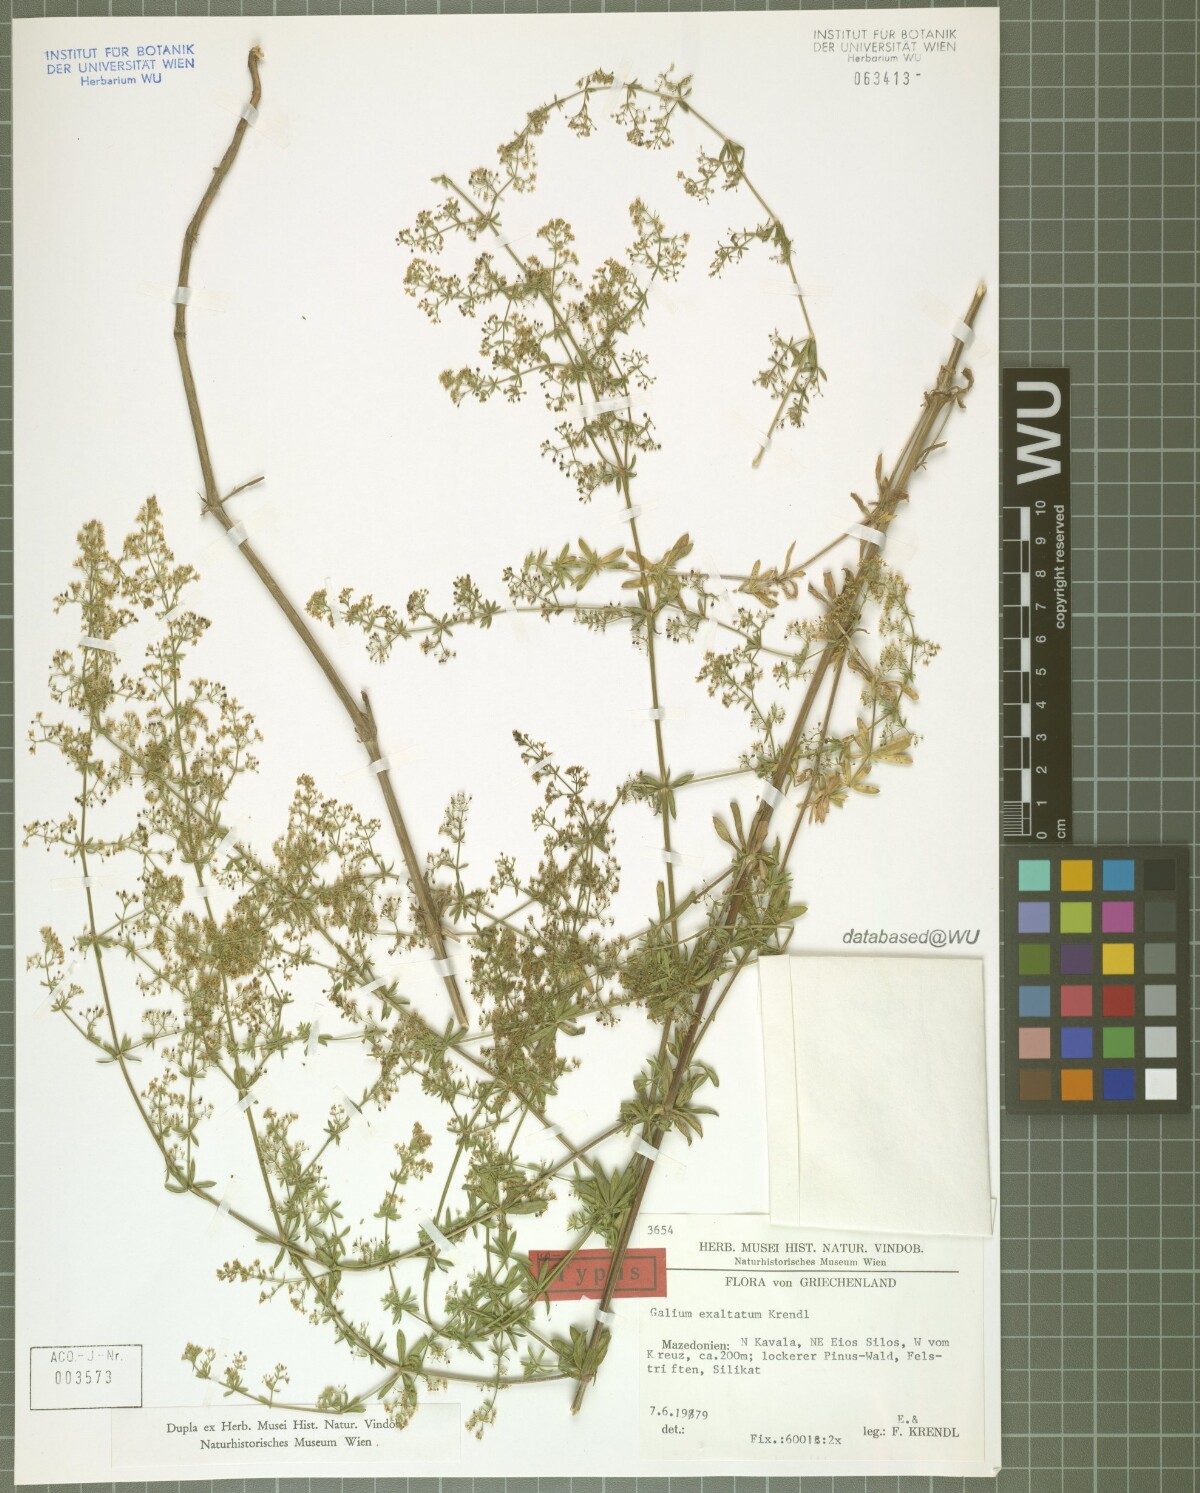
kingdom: Plantae
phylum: Tracheophyta
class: Magnoliopsida
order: Gentianales
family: Rubiaceae
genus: Galium
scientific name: Galium exaltatum
